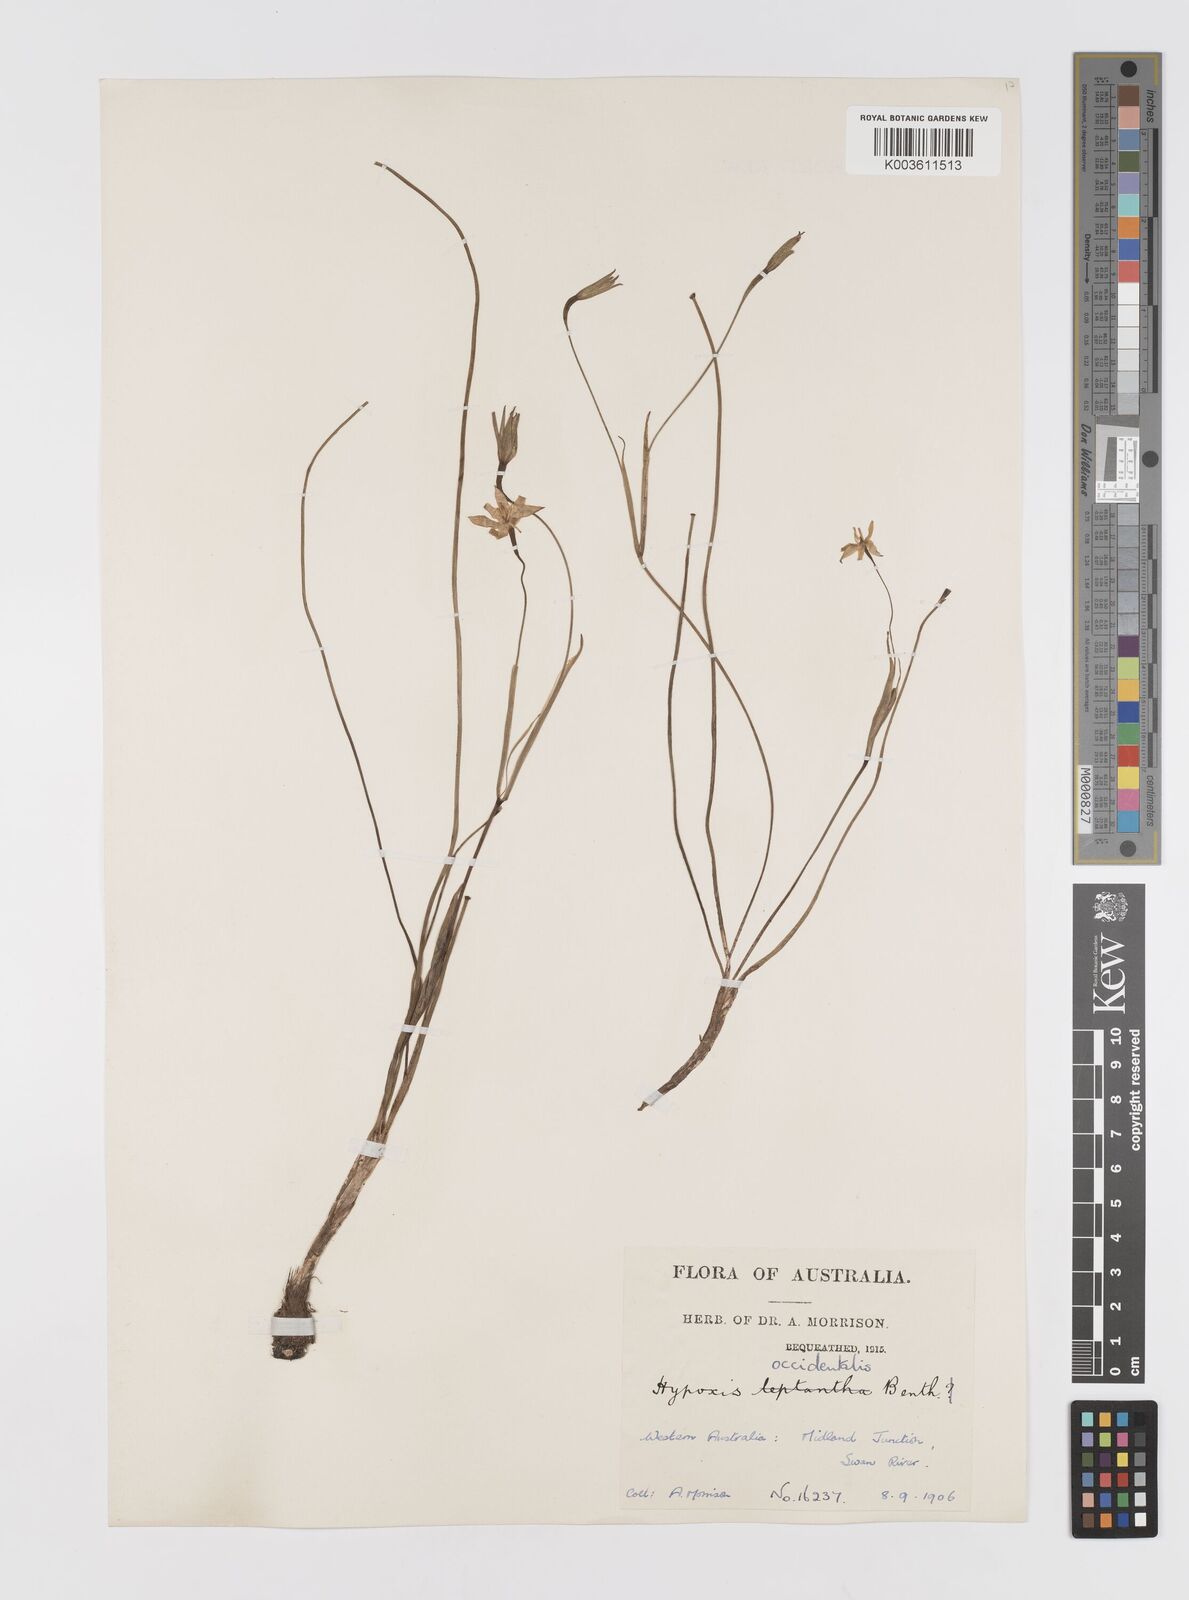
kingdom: Plantae
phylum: Tracheophyta
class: Liliopsida
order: Asparagales
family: Hypoxidaceae
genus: Pauridia
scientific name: Pauridia occidentalis
